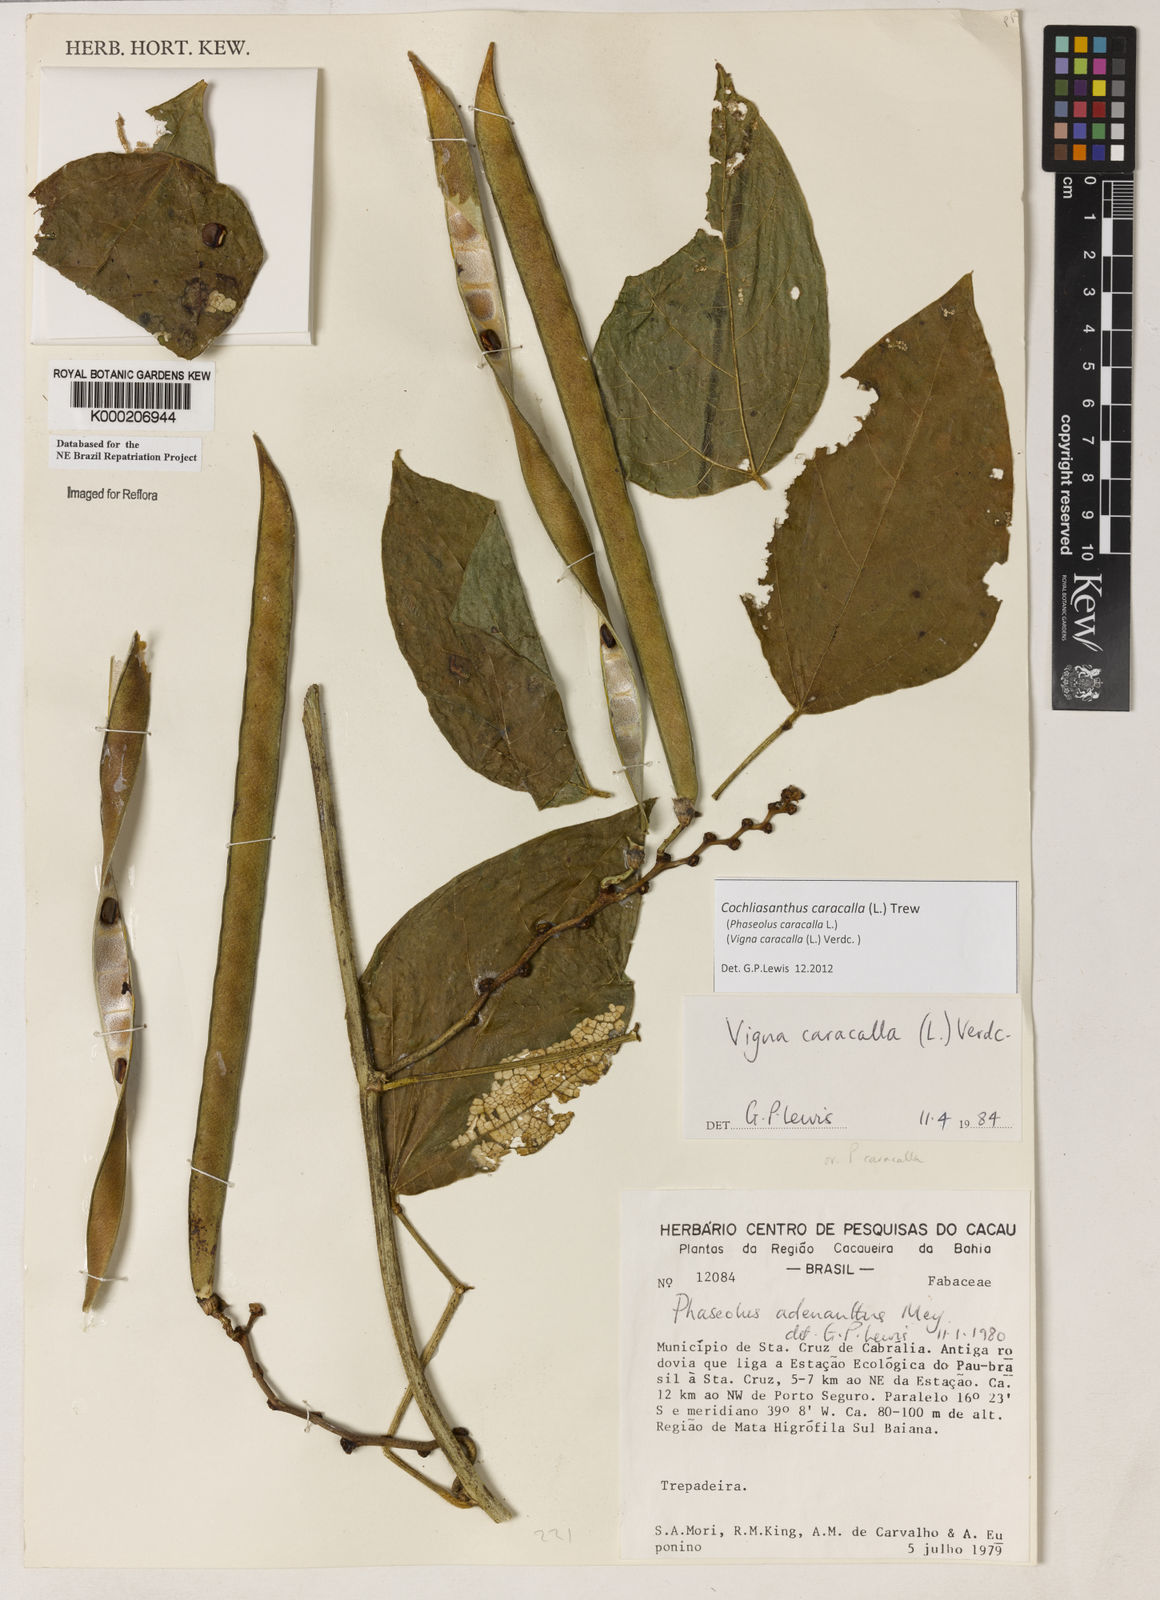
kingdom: Plantae
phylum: Tracheophyta
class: Magnoliopsida
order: Fabales
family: Fabaceae
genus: Cochliasanthus
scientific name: Cochliasanthus caracalla
